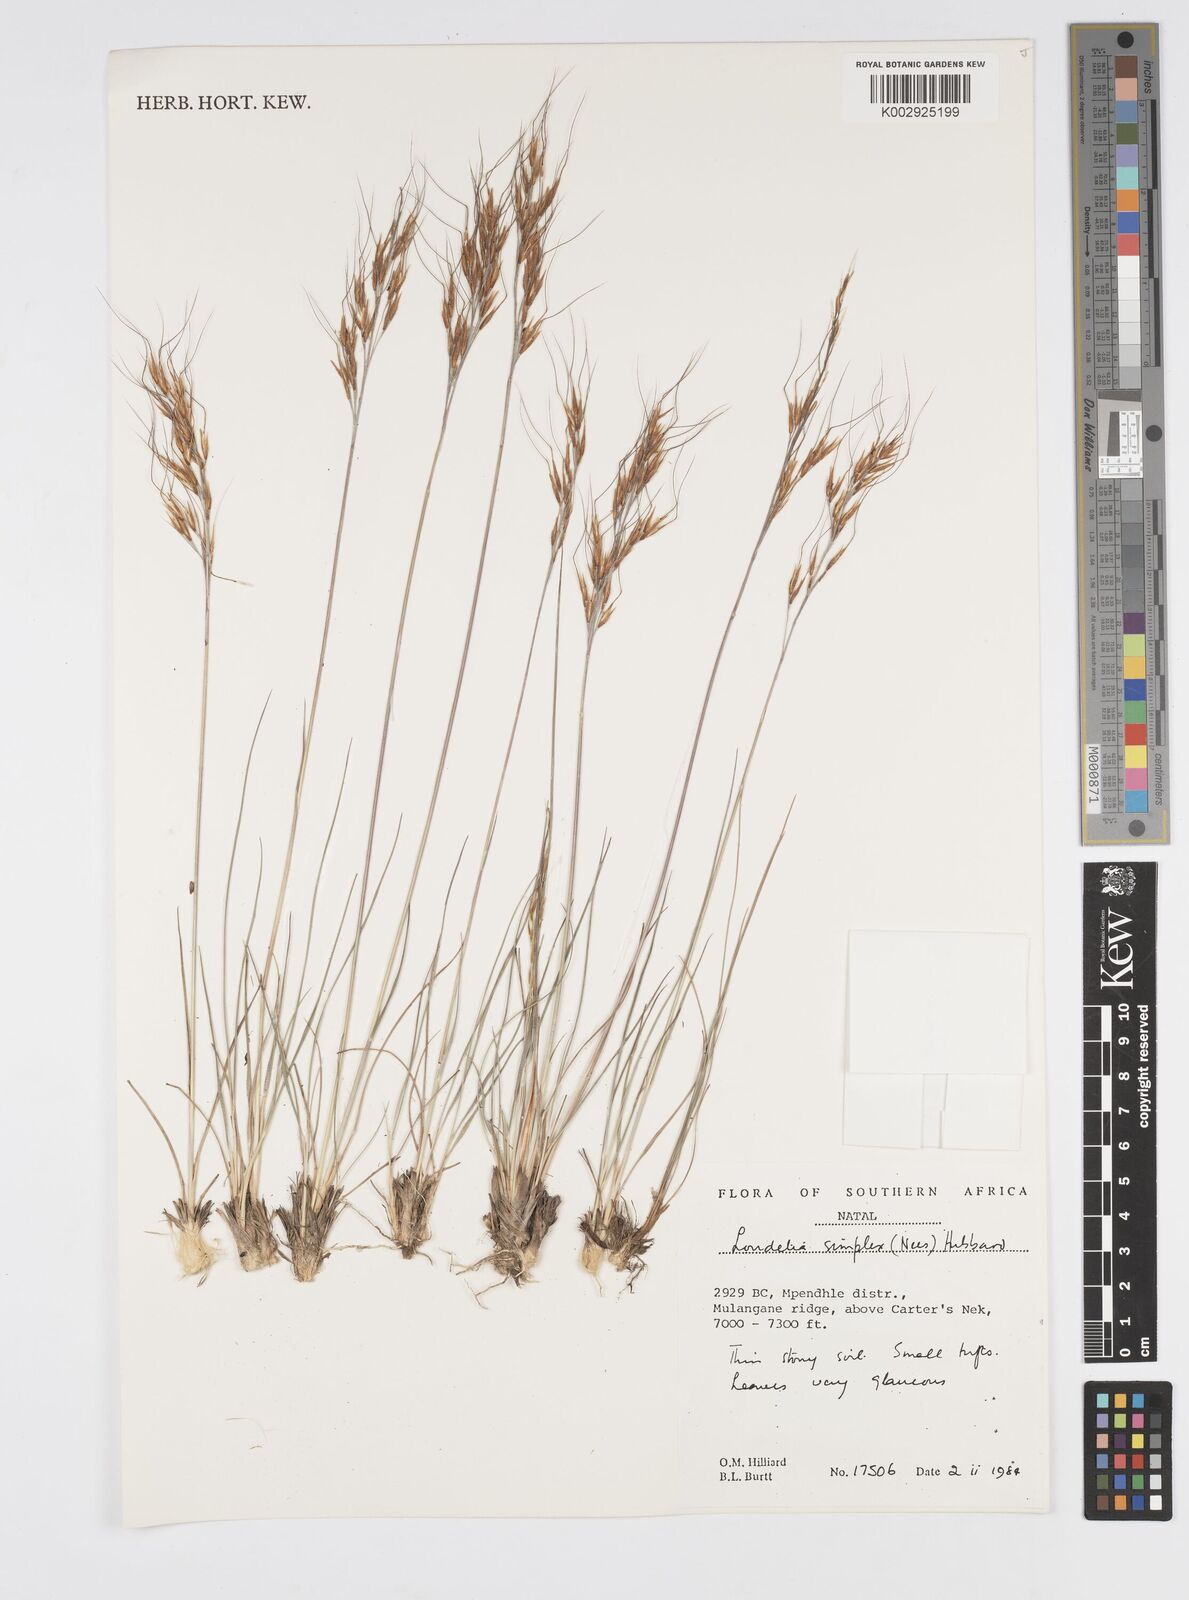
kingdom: Plantae
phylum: Tracheophyta
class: Liliopsida
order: Poales
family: Poaceae
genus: Loudetia
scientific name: Loudetia simplex
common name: Common russet grass
